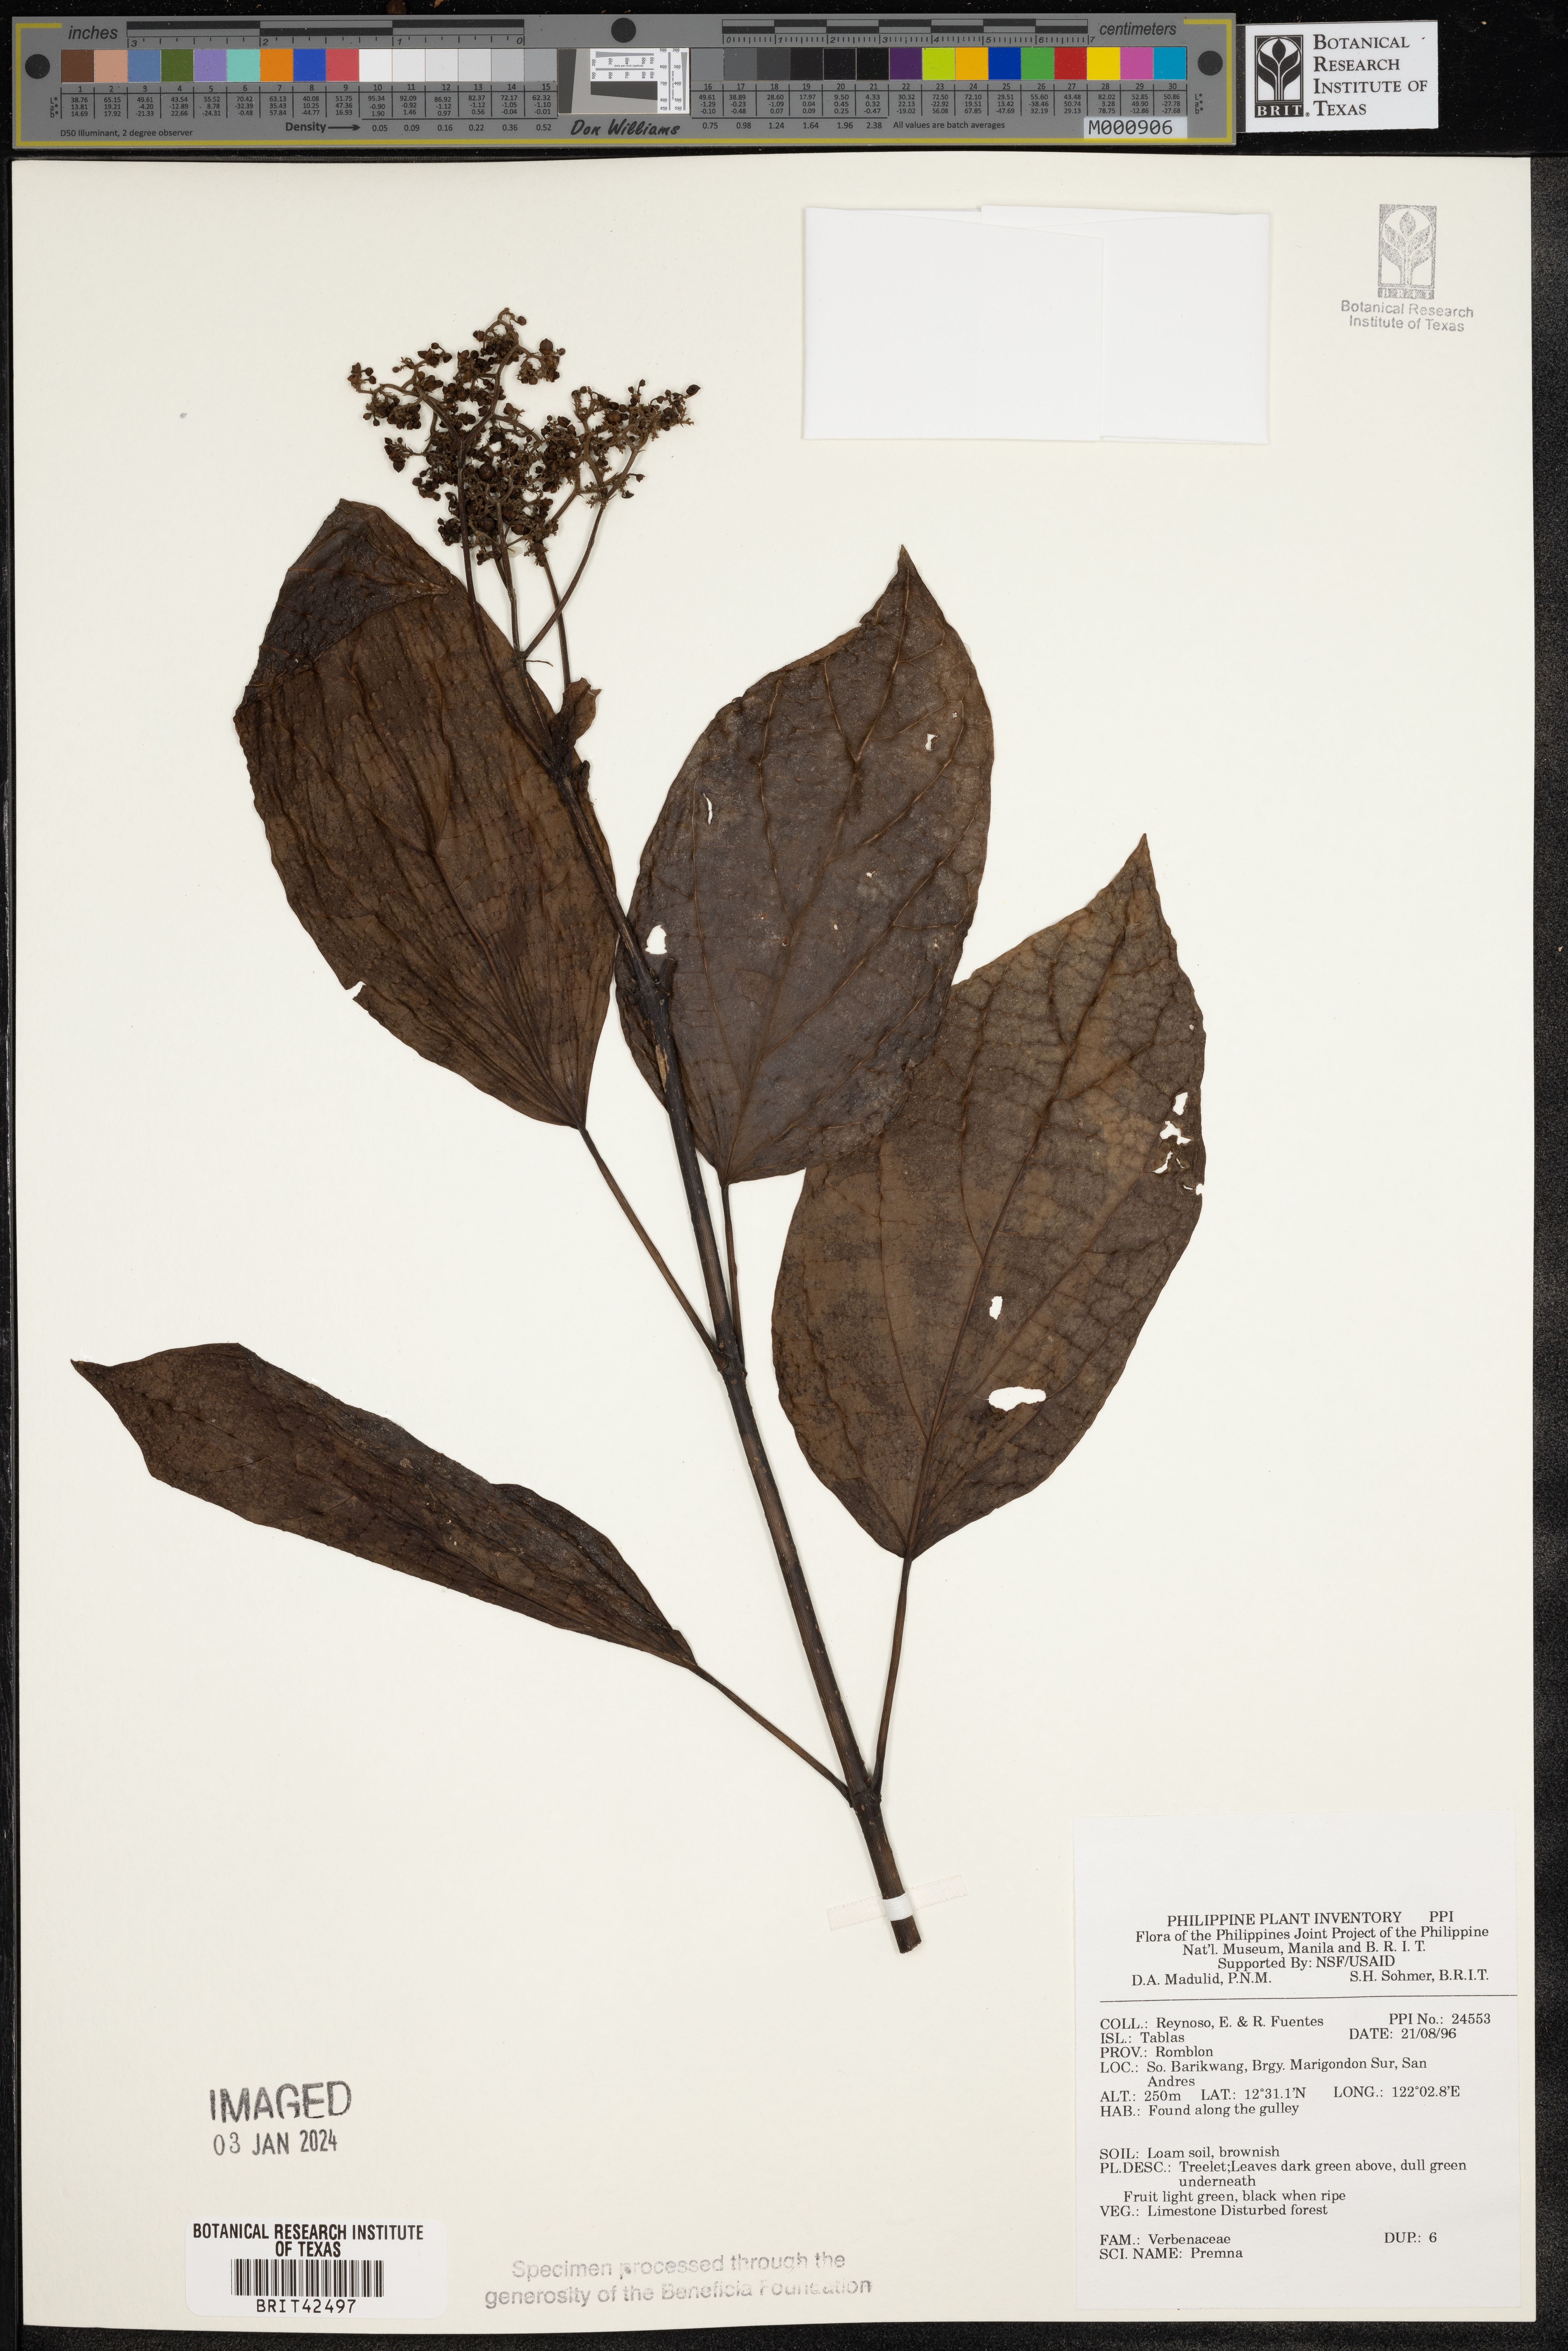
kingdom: Plantae
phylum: Tracheophyta
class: Magnoliopsida
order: Lamiales
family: Lamiaceae
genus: Premna
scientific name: Premna
